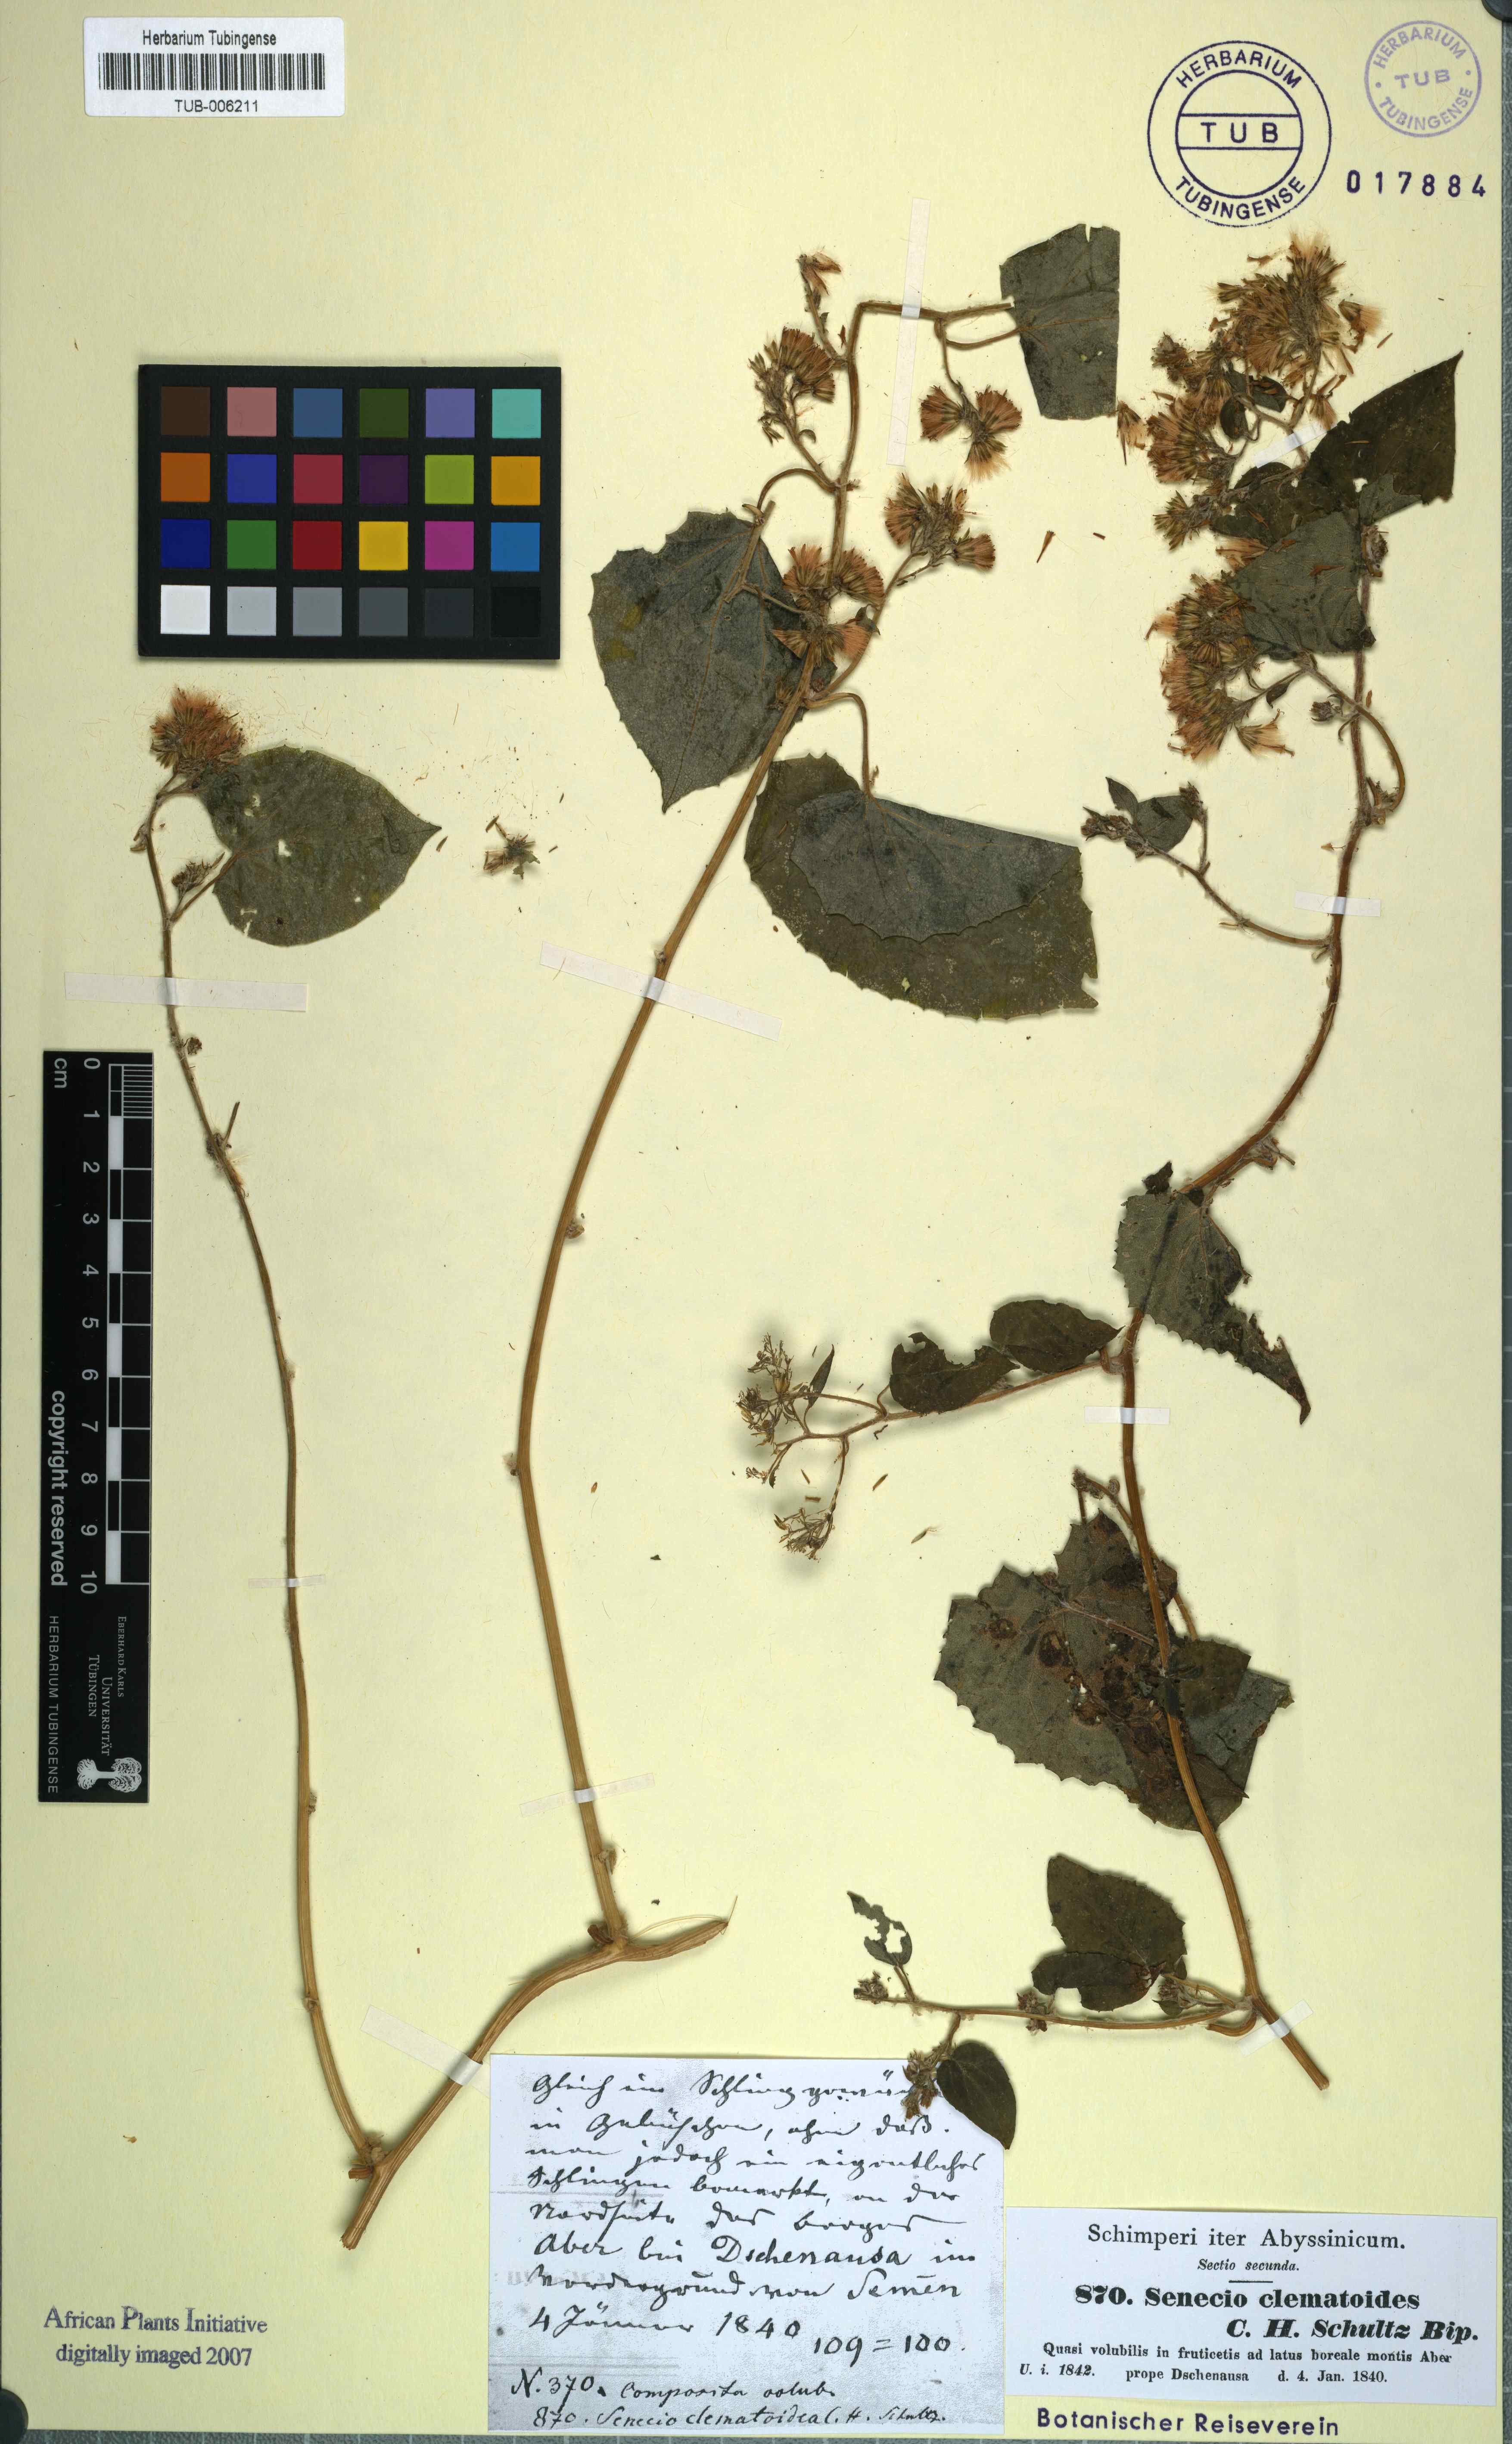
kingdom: Plantae
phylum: Tracheophyta
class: Magnoliopsida
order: Asterales
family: Asteraceae
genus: Mikaniopsis
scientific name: Mikaniopsis clematoides
